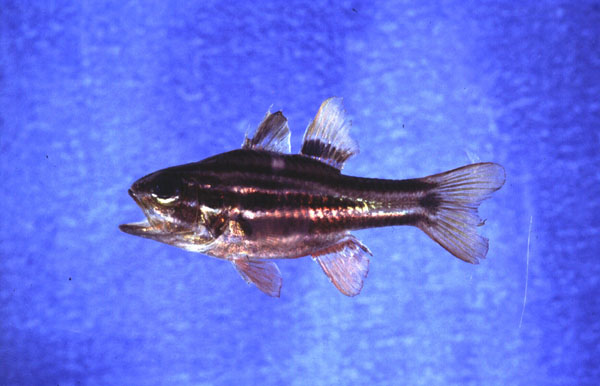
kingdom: Animalia
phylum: Chordata
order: Perciformes
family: Apogonidae
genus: Ostorhinchus
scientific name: Ostorhinchus cookii
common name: Cook's cardinalfish
